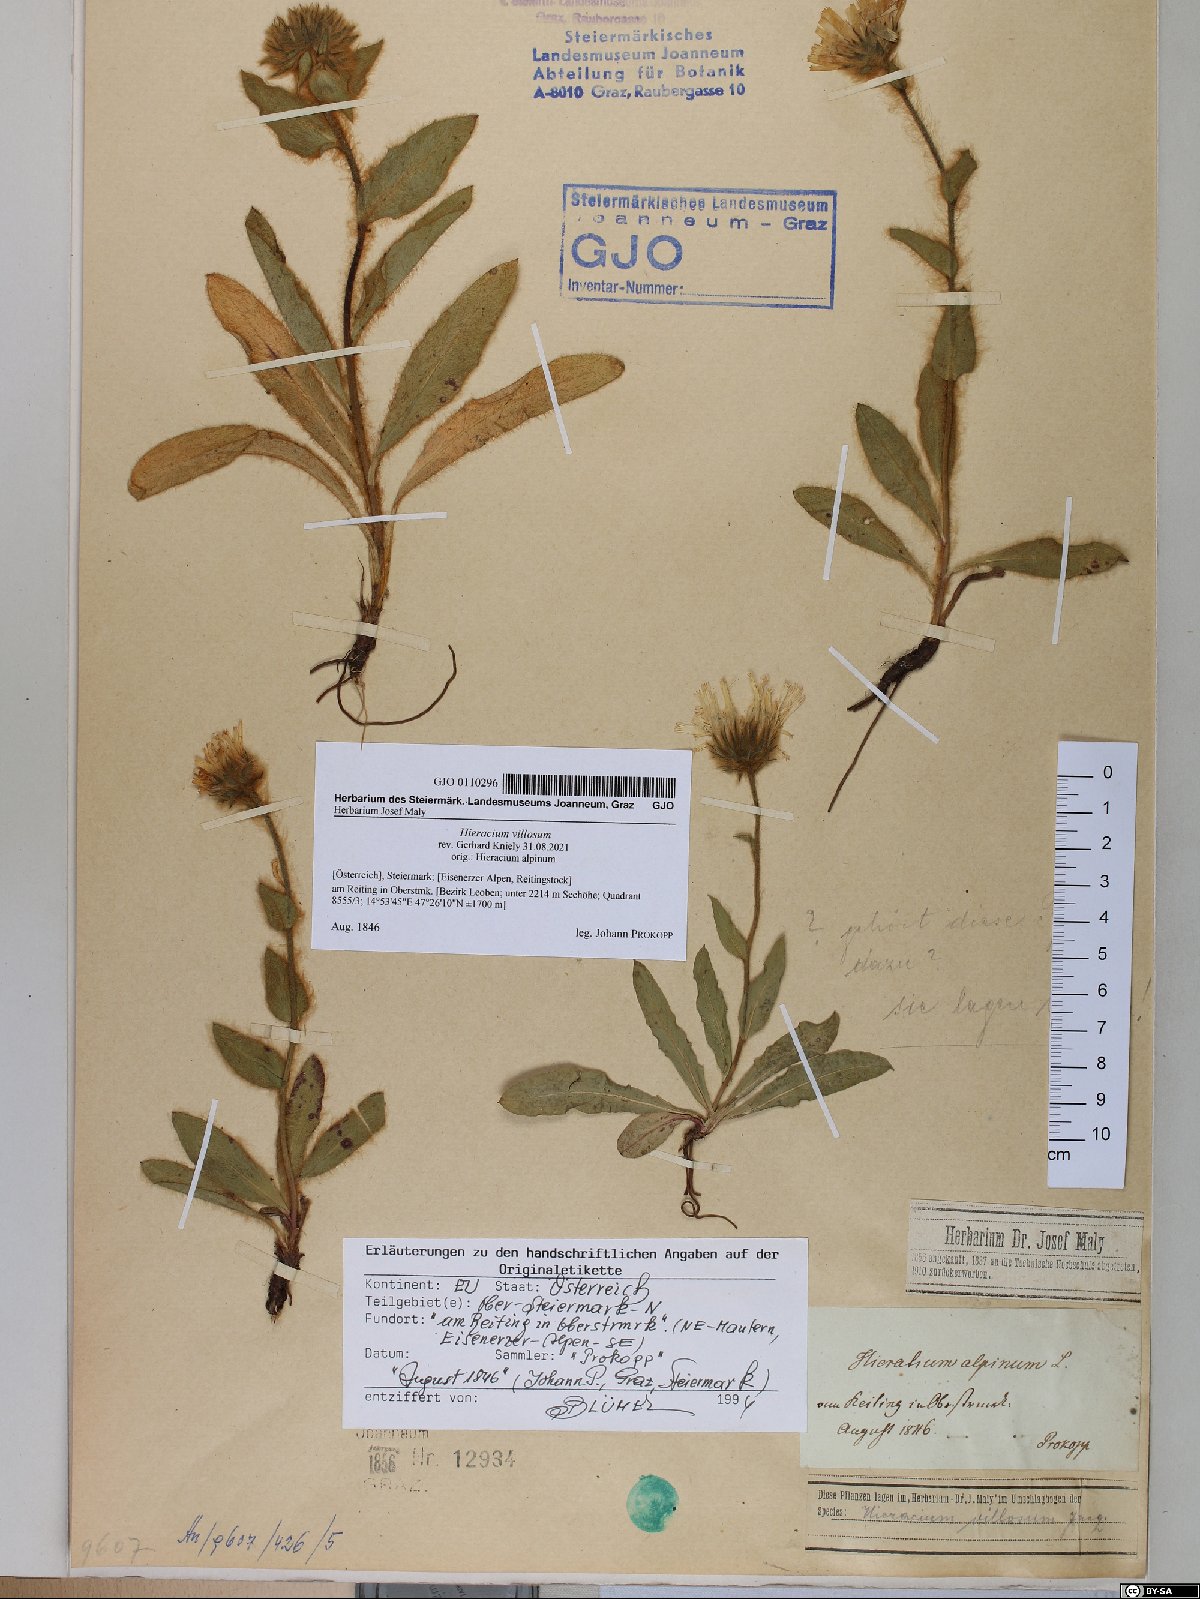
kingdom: Plantae
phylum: Tracheophyta
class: Magnoliopsida
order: Asterales
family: Asteraceae
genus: Hieracium
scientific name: Hieracium villosum
